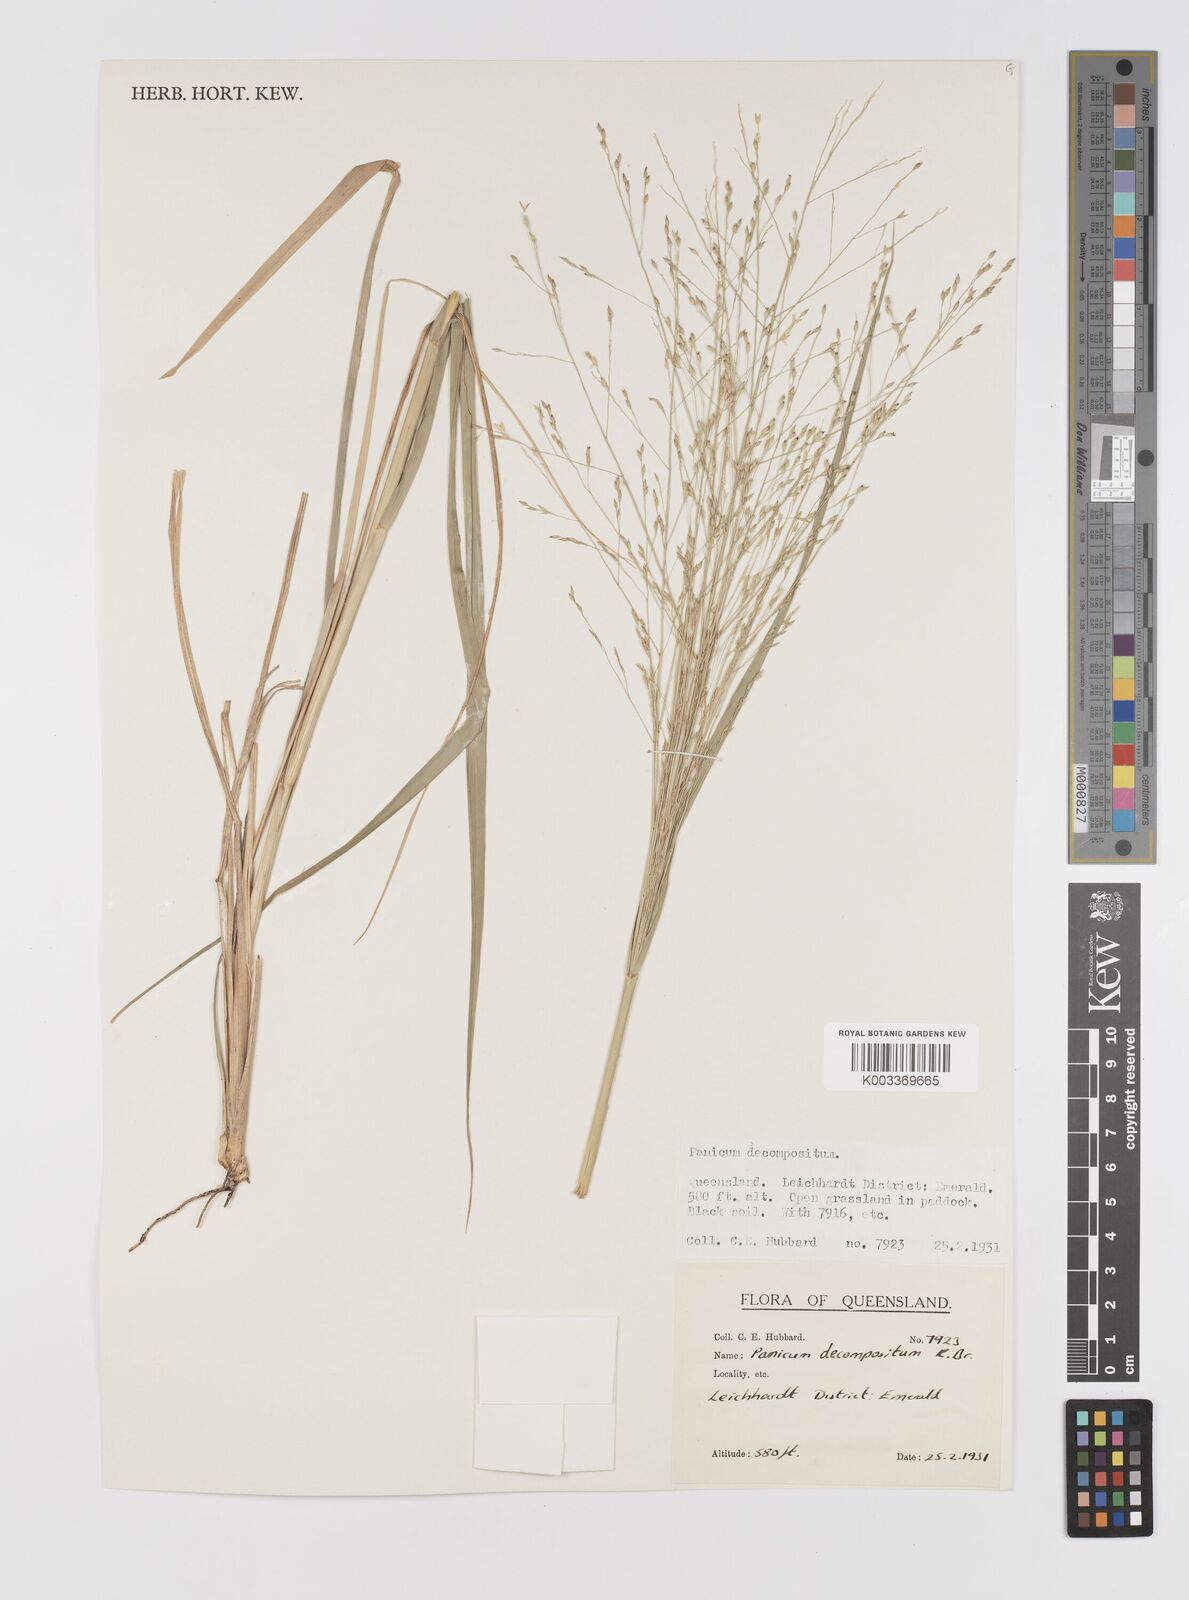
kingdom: Plantae
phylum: Tracheophyta
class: Liliopsida
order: Poales
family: Poaceae
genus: Panicum
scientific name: Panicum decompositum
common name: Australian millet
